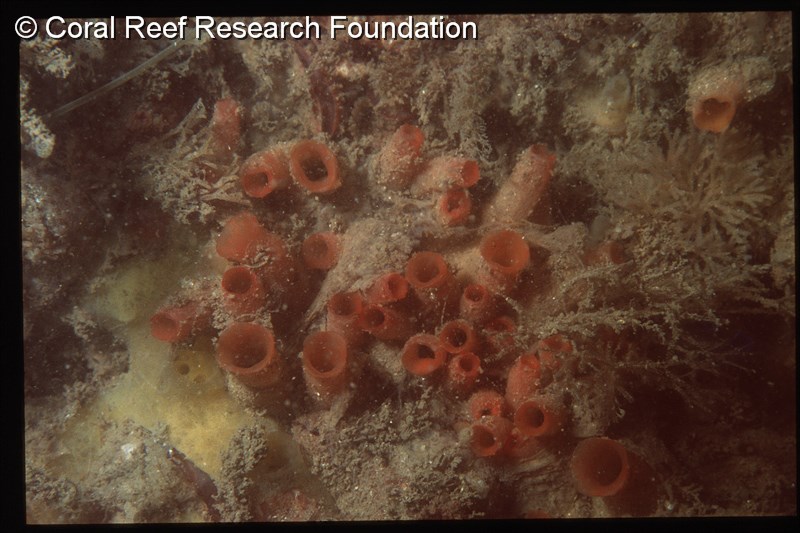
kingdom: Animalia
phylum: Chordata
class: Ascidiacea
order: Stolidobranchia
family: Styelidae
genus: Polyandrocarpa
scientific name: Polyandrocarpa anguinea
